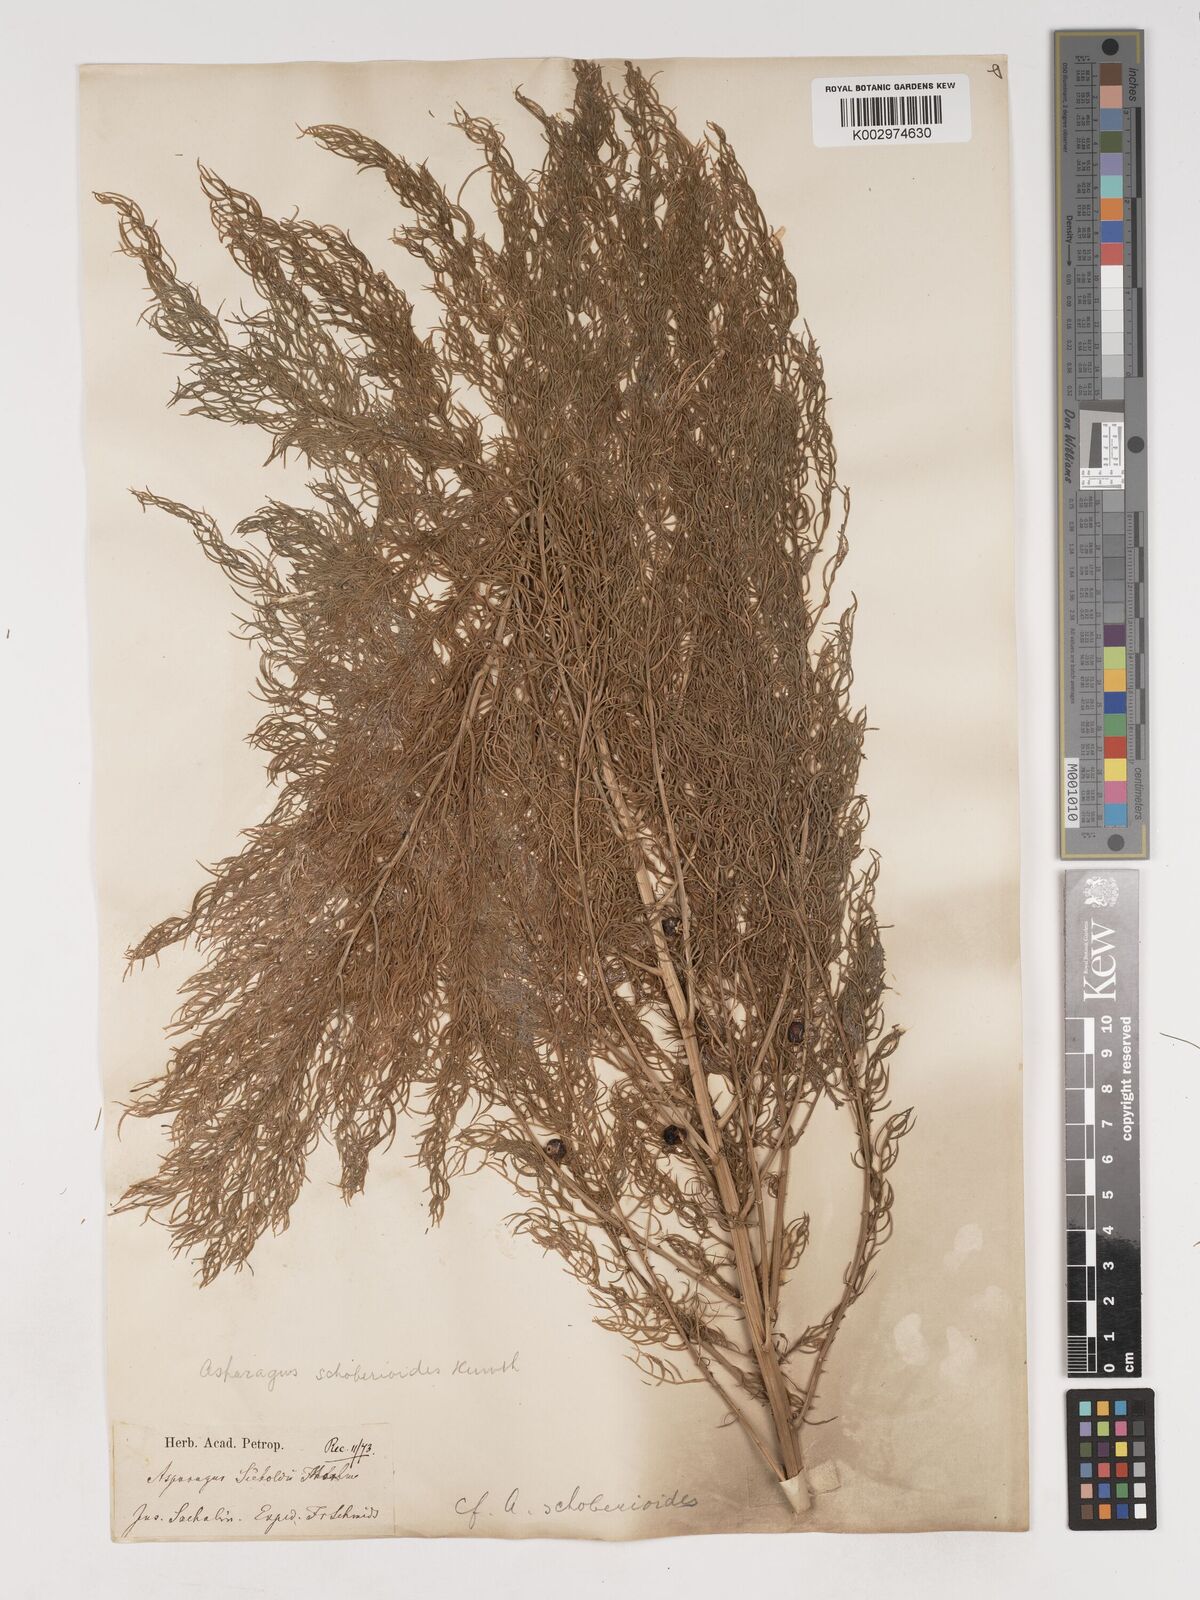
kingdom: Plantae
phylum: Tracheophyta
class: Liliopsida
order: Asparagales
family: Asparagaceae
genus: Asparagus
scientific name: Asparagus schoberioides
